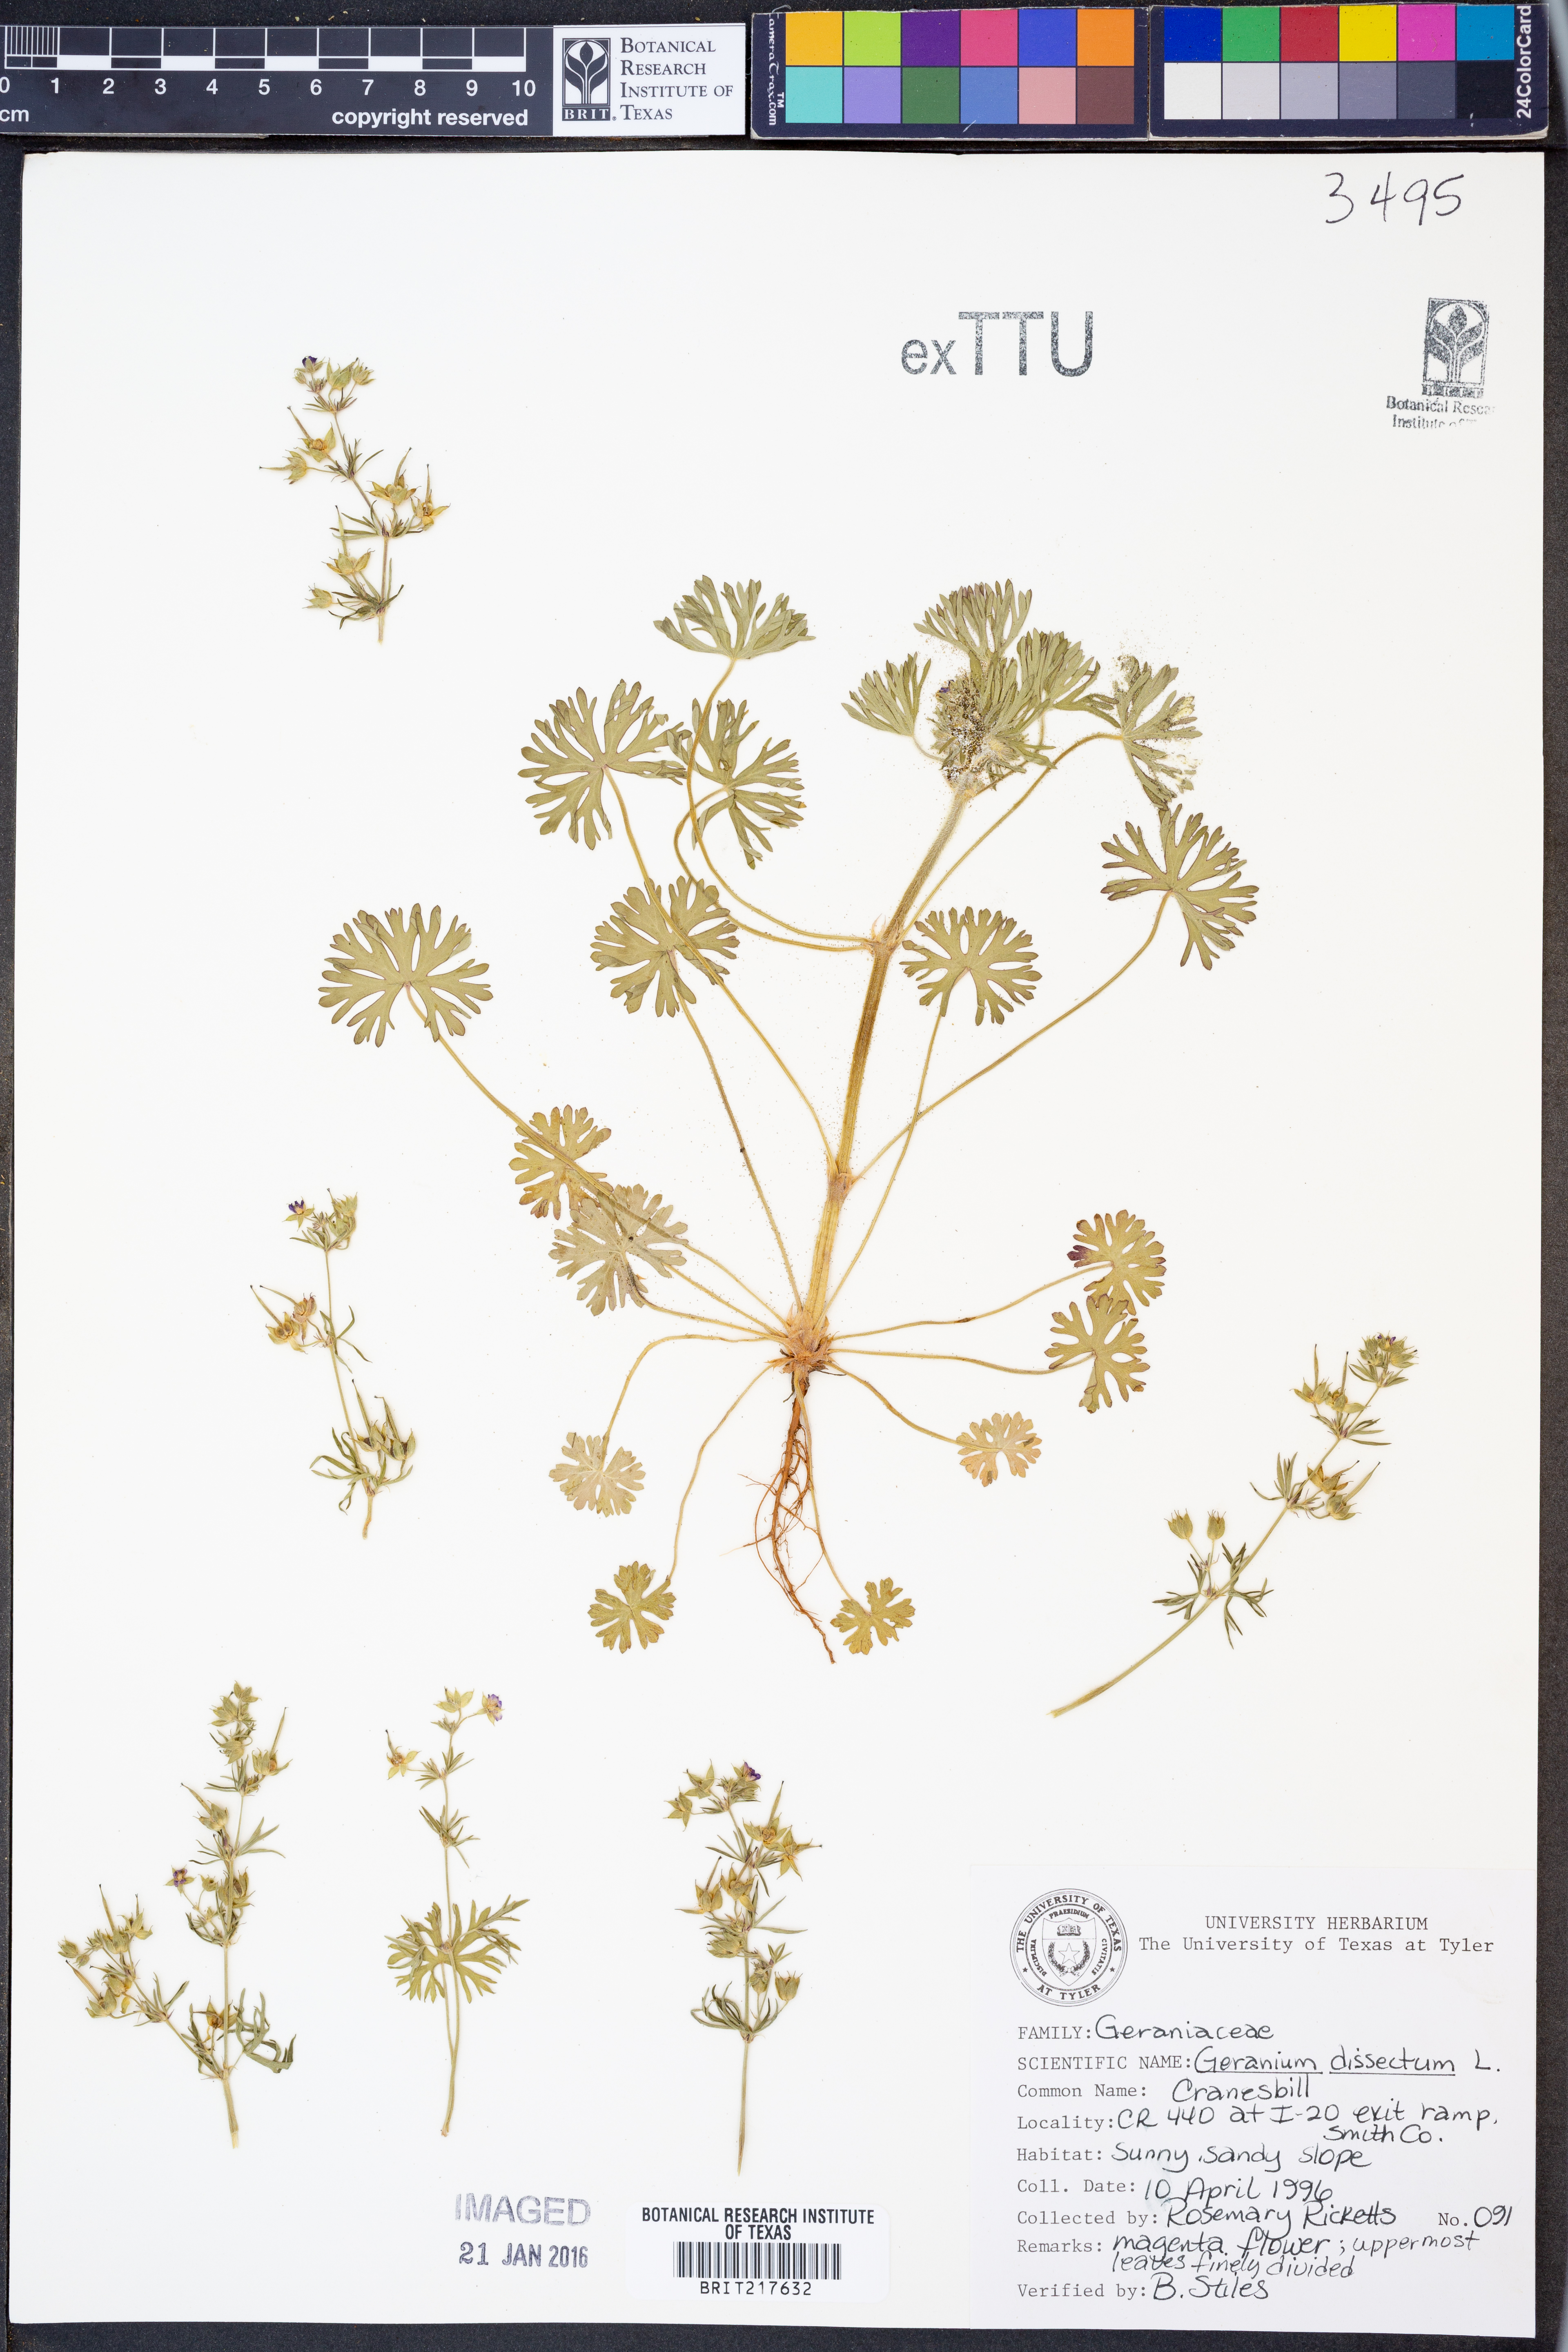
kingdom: Plantae
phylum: Tracheophyta
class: Magnoliopsida
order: Geraniales
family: Geraniaceae
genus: Geranium
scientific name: Geranium dissectum
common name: Cut-leaved crane's-bill
